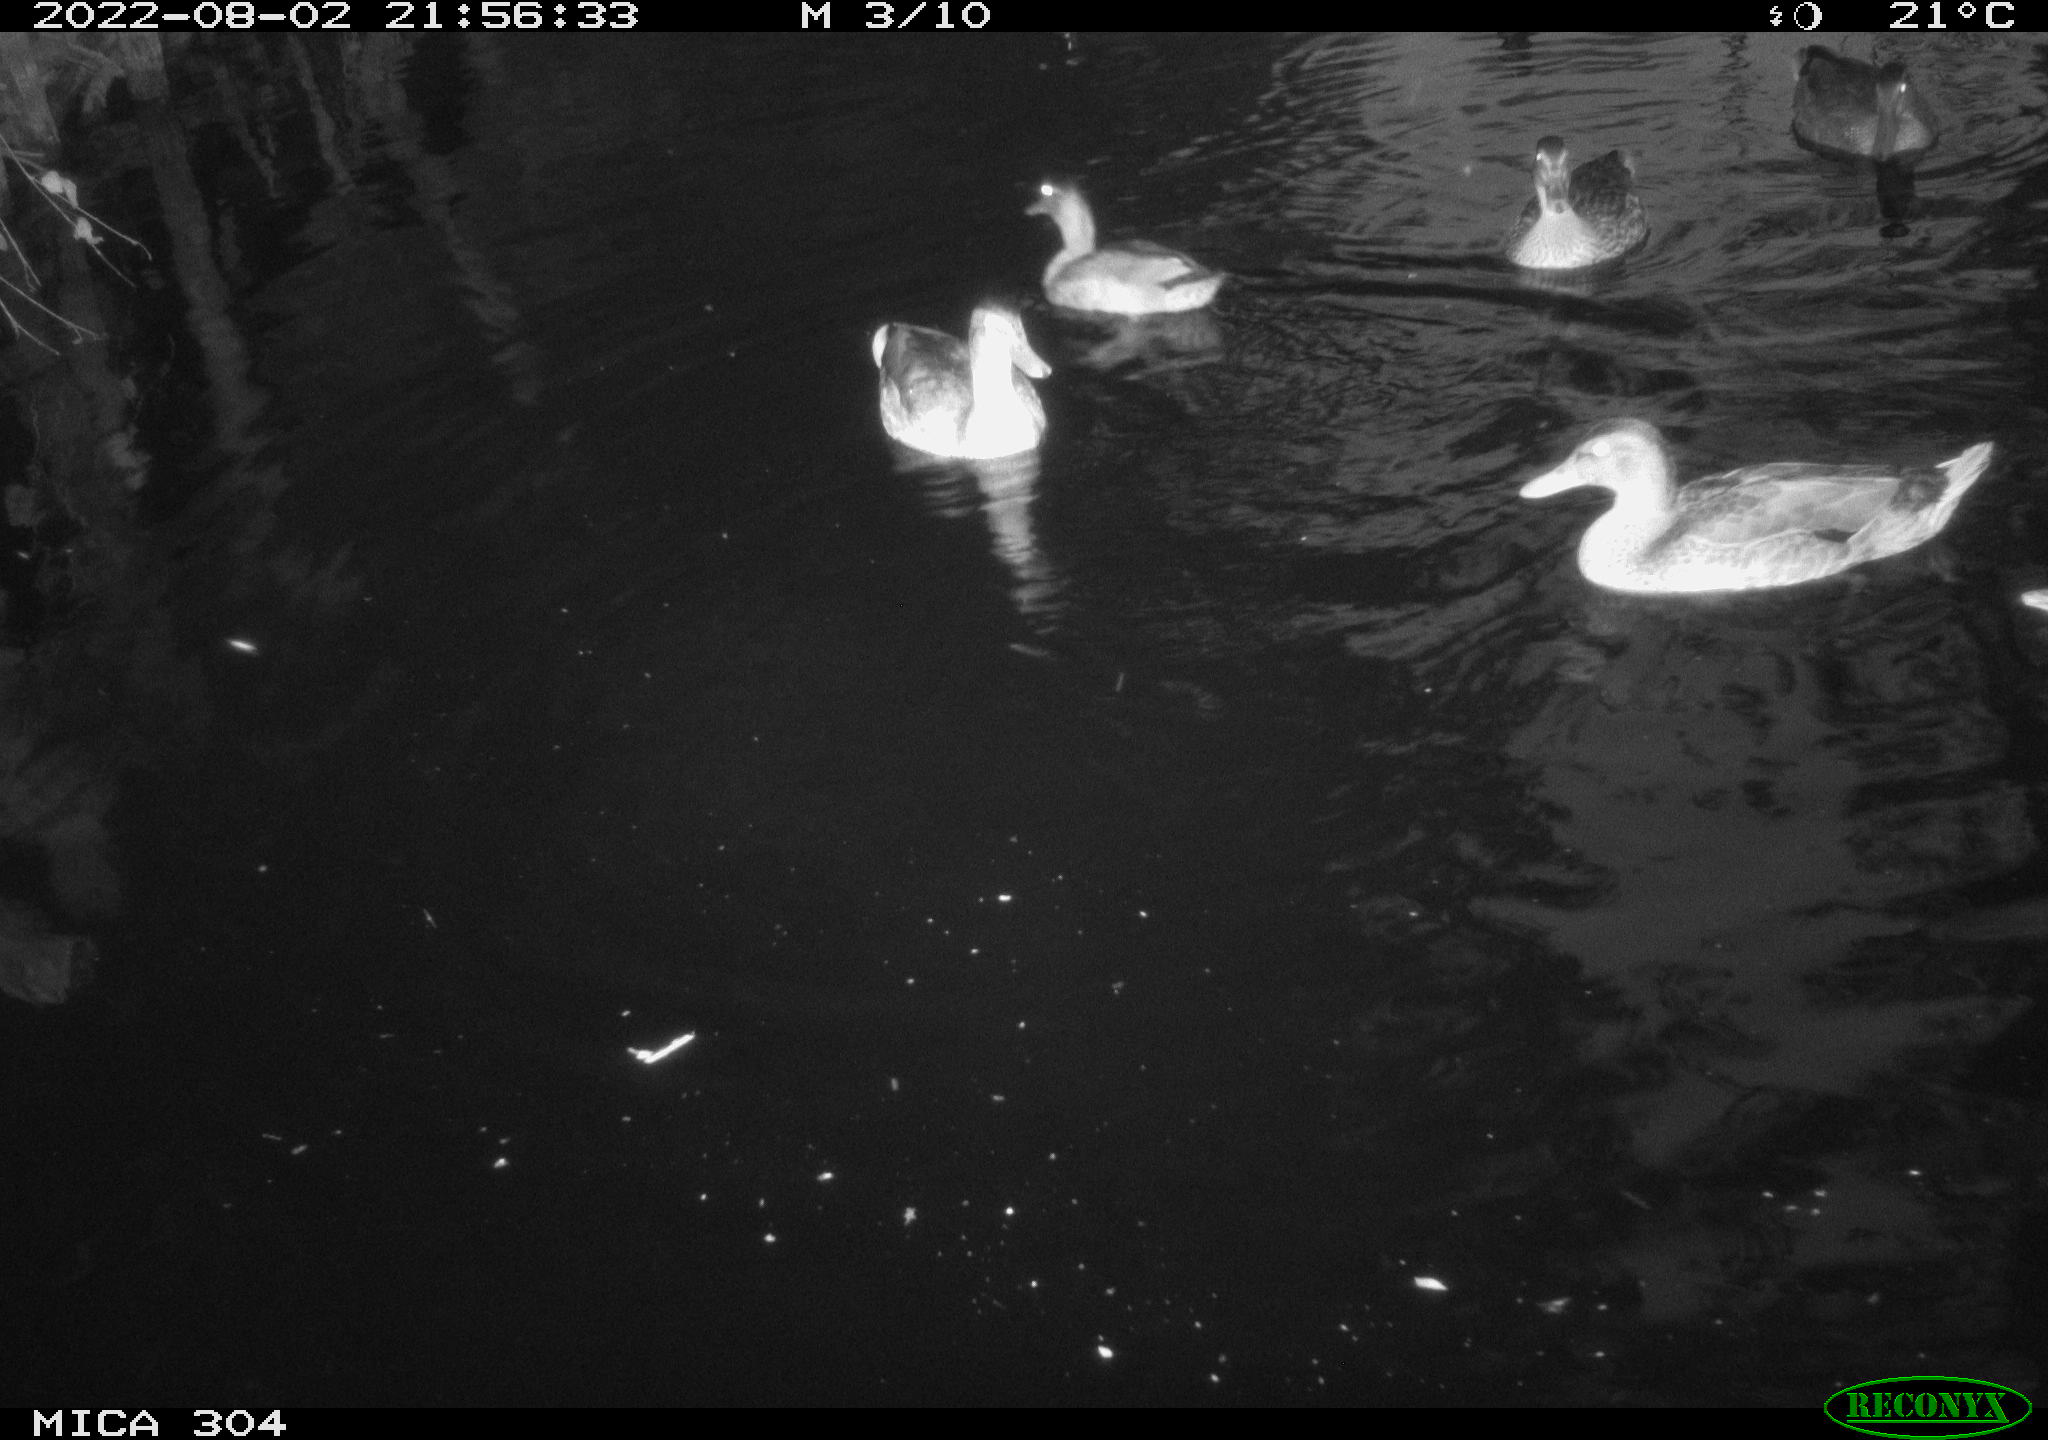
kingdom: Animalia
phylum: Chordata
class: Aves
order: Anseriformes
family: Anatidae
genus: Mareca
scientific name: Mareca strepera
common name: Gadwall
